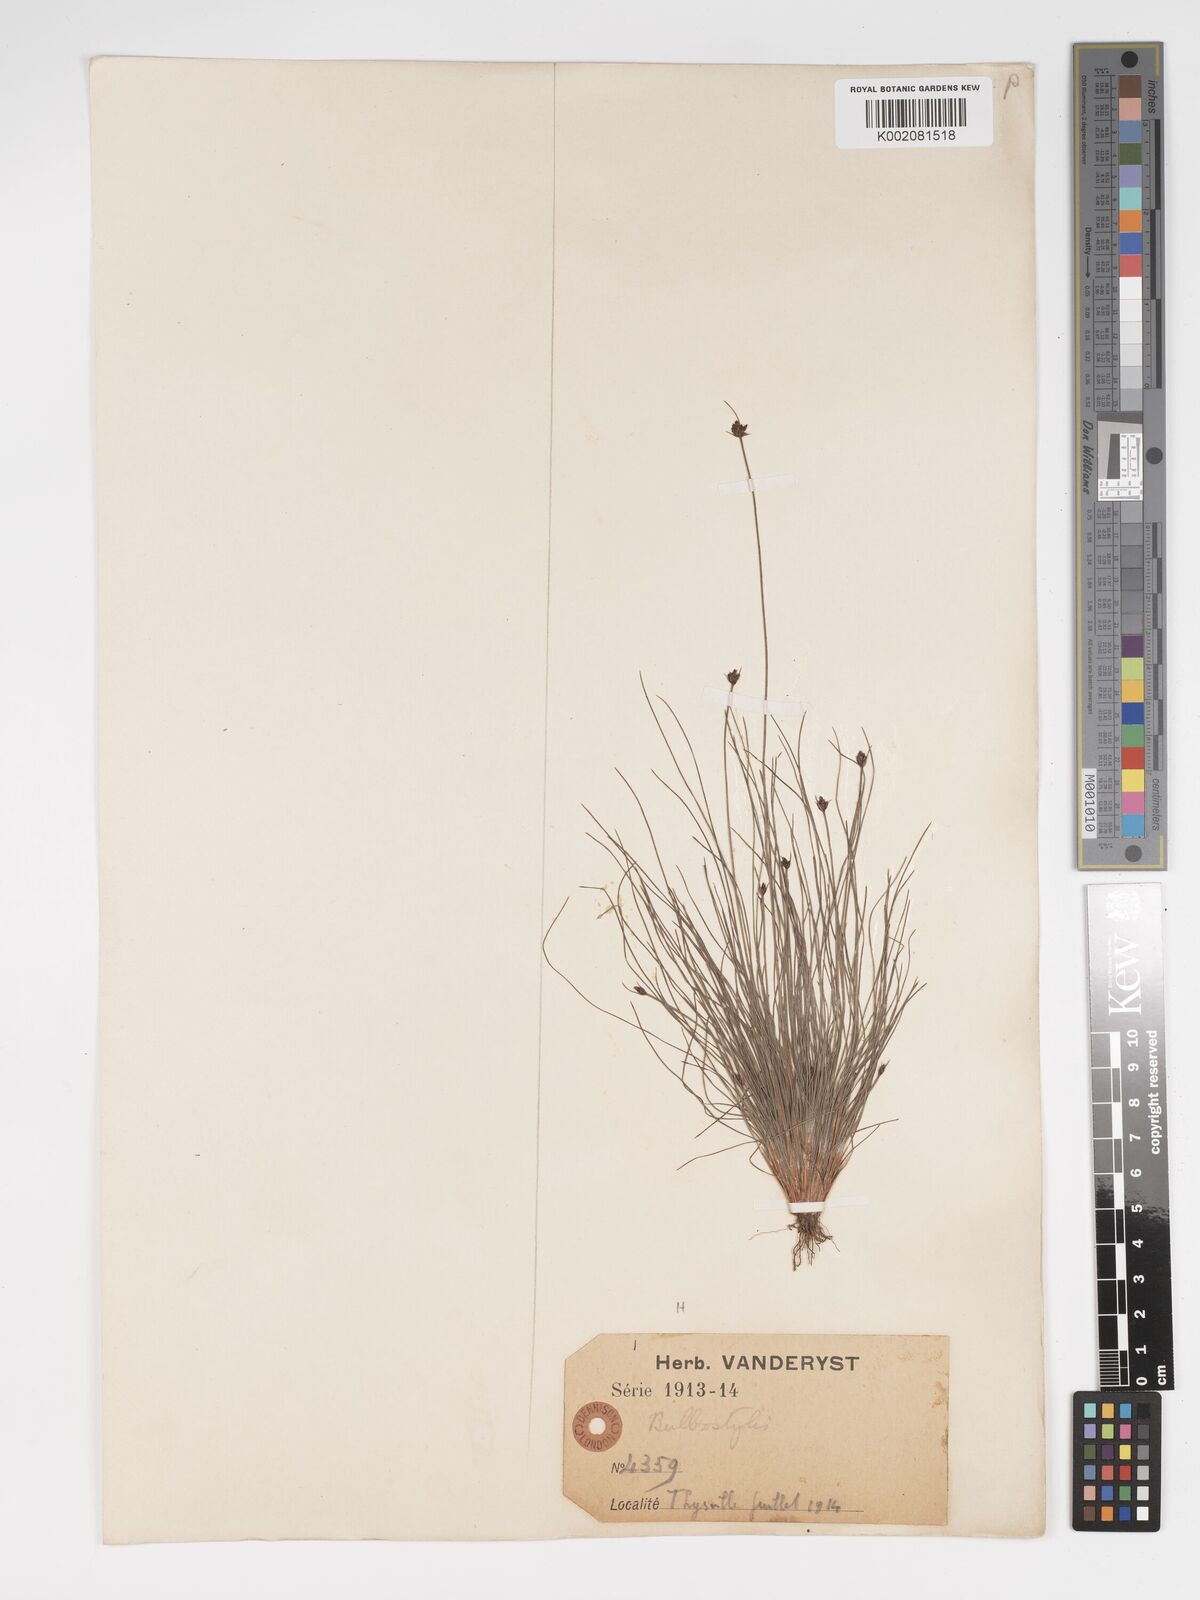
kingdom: Plantae
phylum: Tracheophyta
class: Liliopsida
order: Poales
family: Cyperaceae
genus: Bulbostylis
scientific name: Bulbostylis scabricaulis
